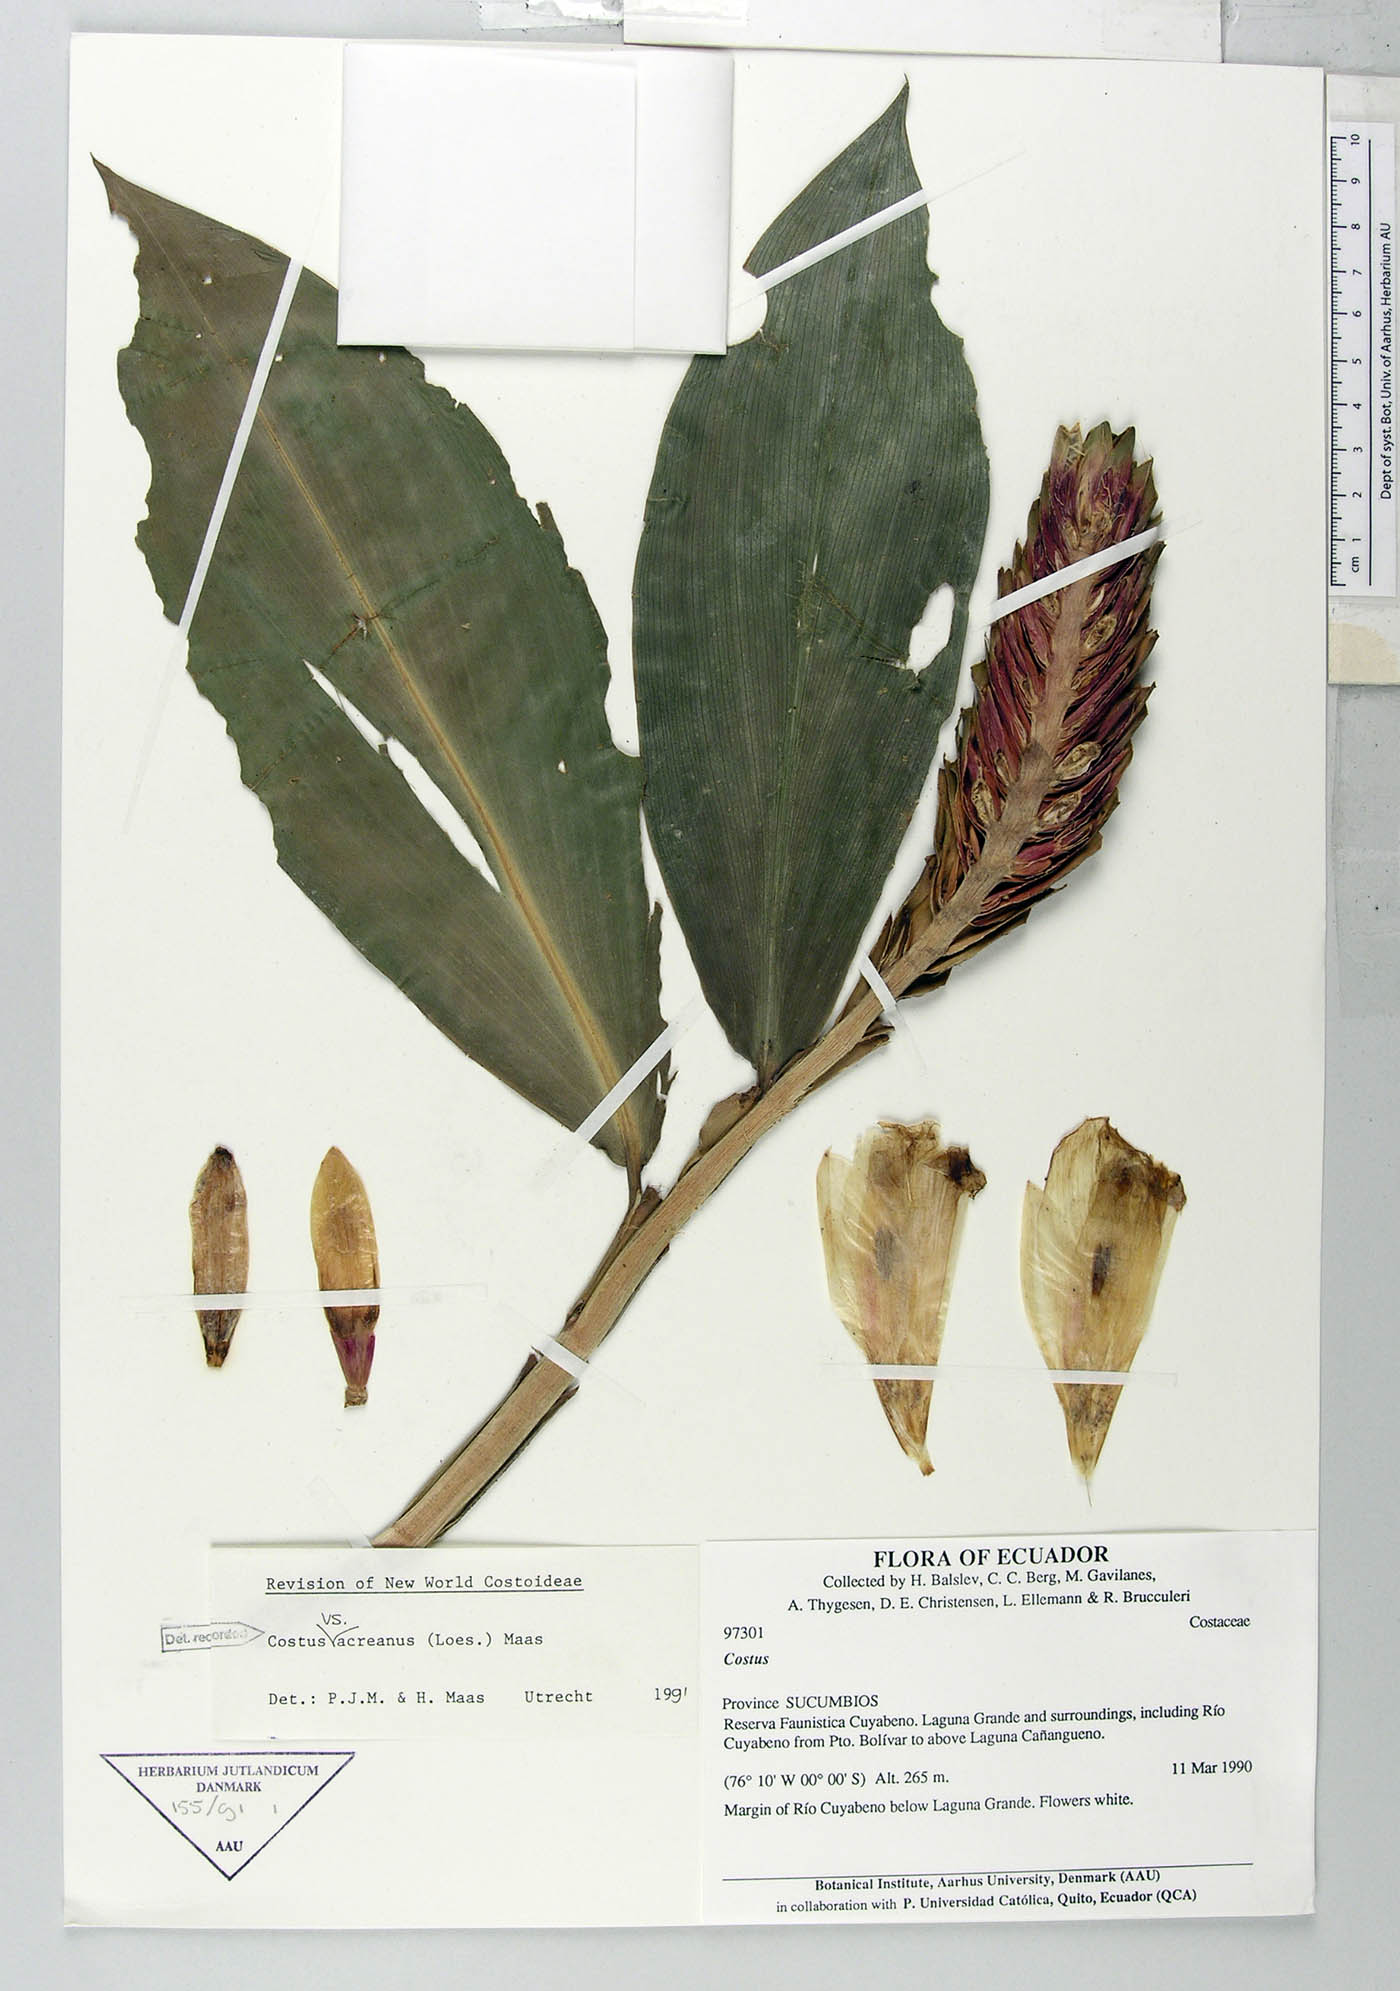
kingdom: Plantae
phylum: Tracheophyta
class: Liliopsida
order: Zingiberales
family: Costaceae
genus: Costus
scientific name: Costus acreanus
